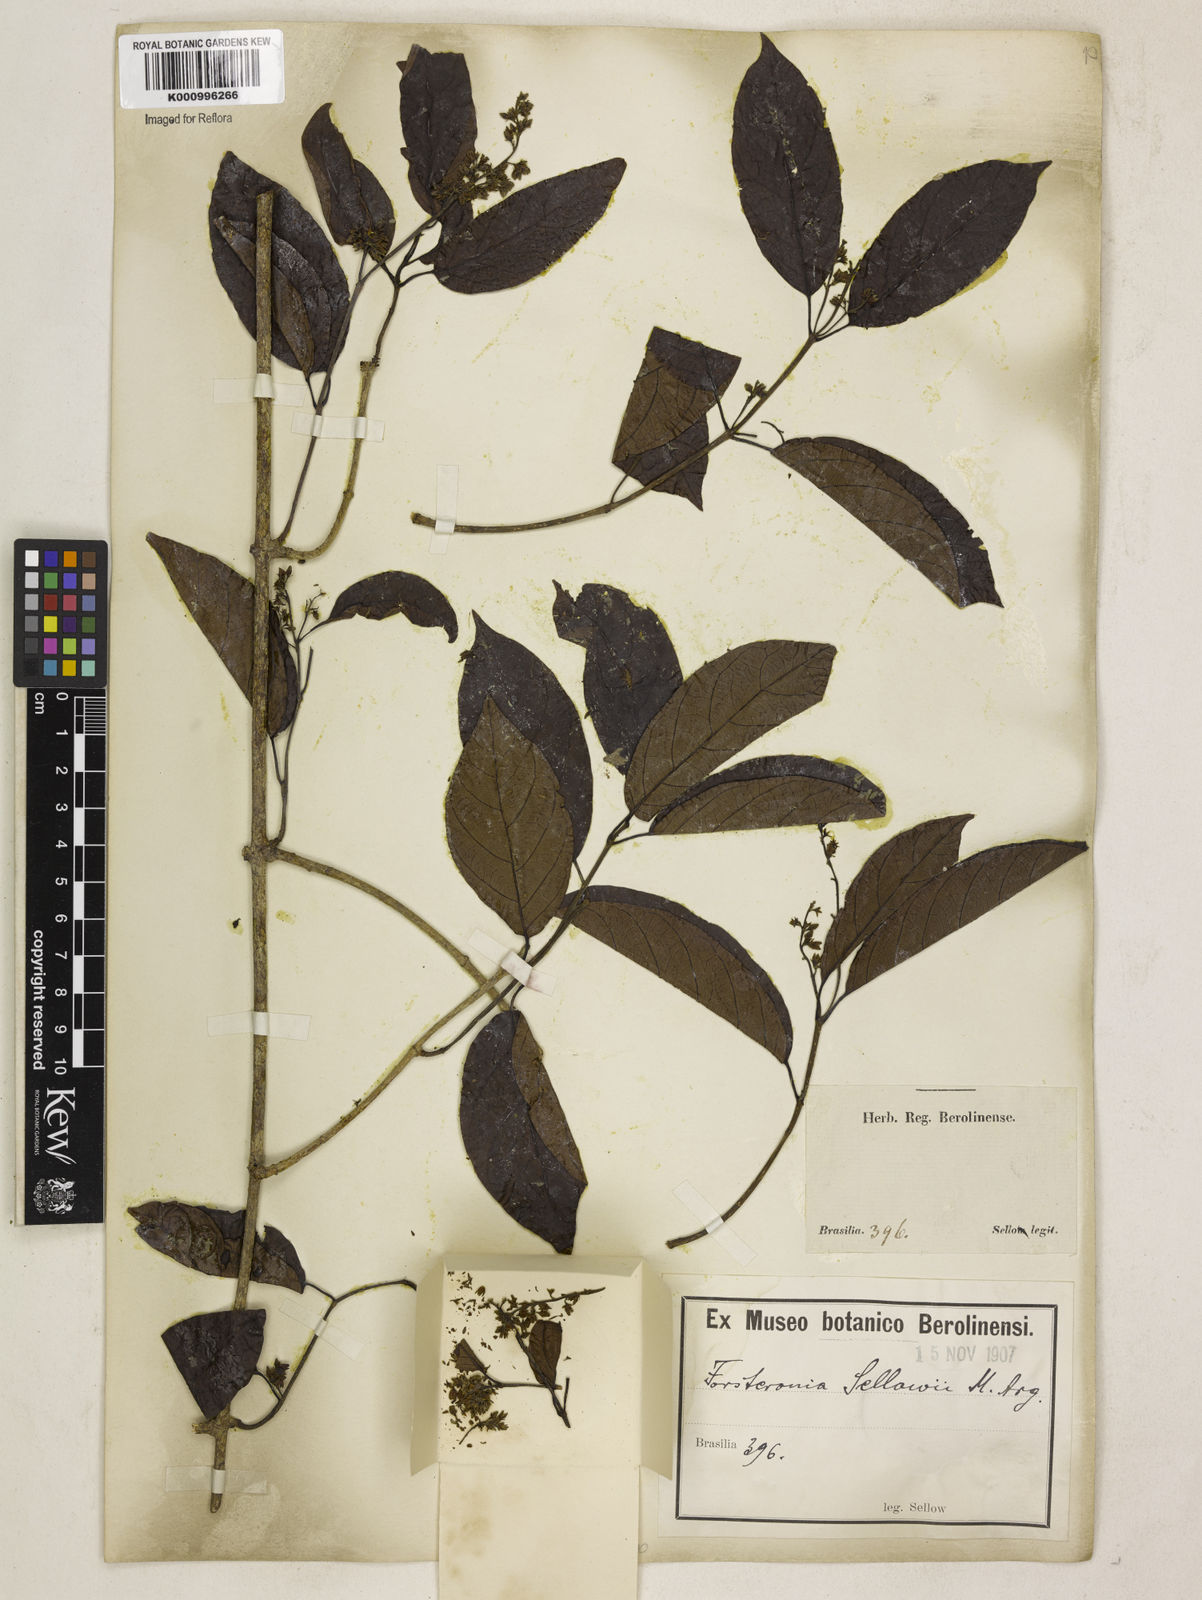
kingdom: Plantae
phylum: Tracheophyta
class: Magnoliopsida
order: Gentianales
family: Apocynaceae
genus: Forsteronia
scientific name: Forsteronia
